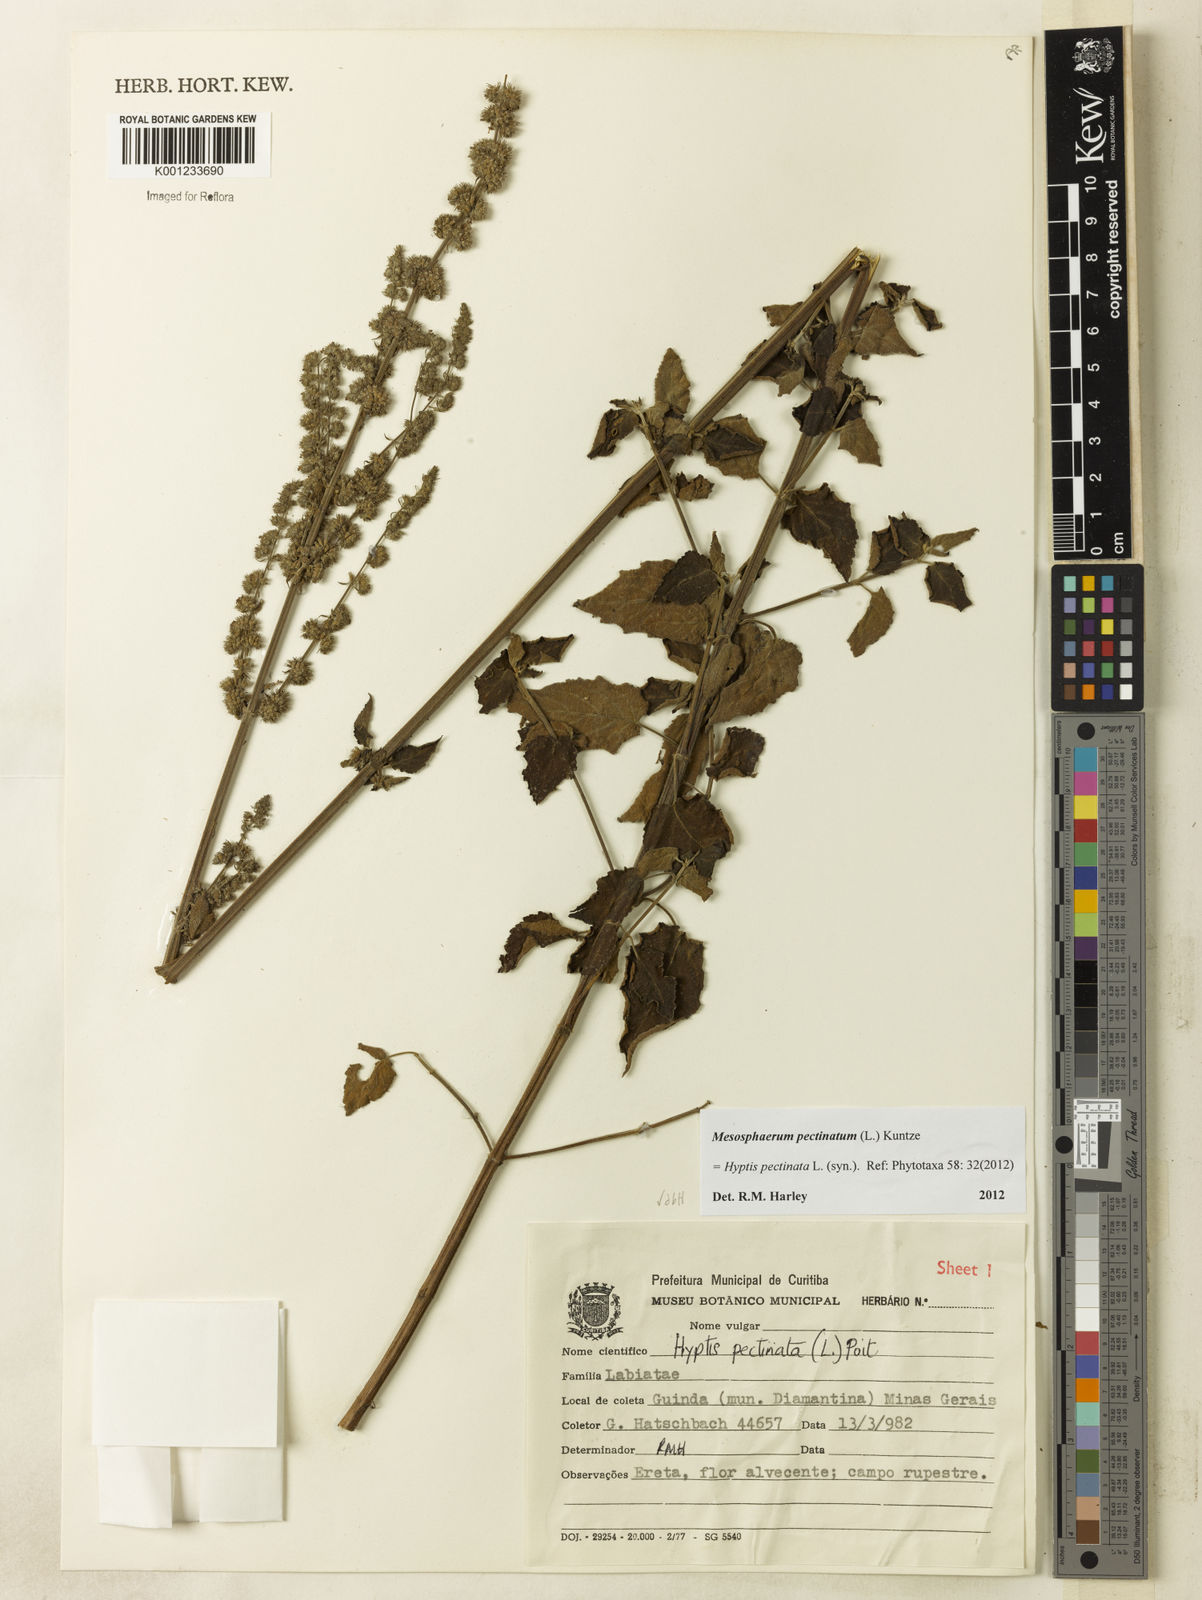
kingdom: Plantae
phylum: Tracheophyta
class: Magnoliopsida
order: Lamiales
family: Lamiaceae
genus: Mesosphaerum
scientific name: Mesosphaerum pectinatum
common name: Comb hyptis
